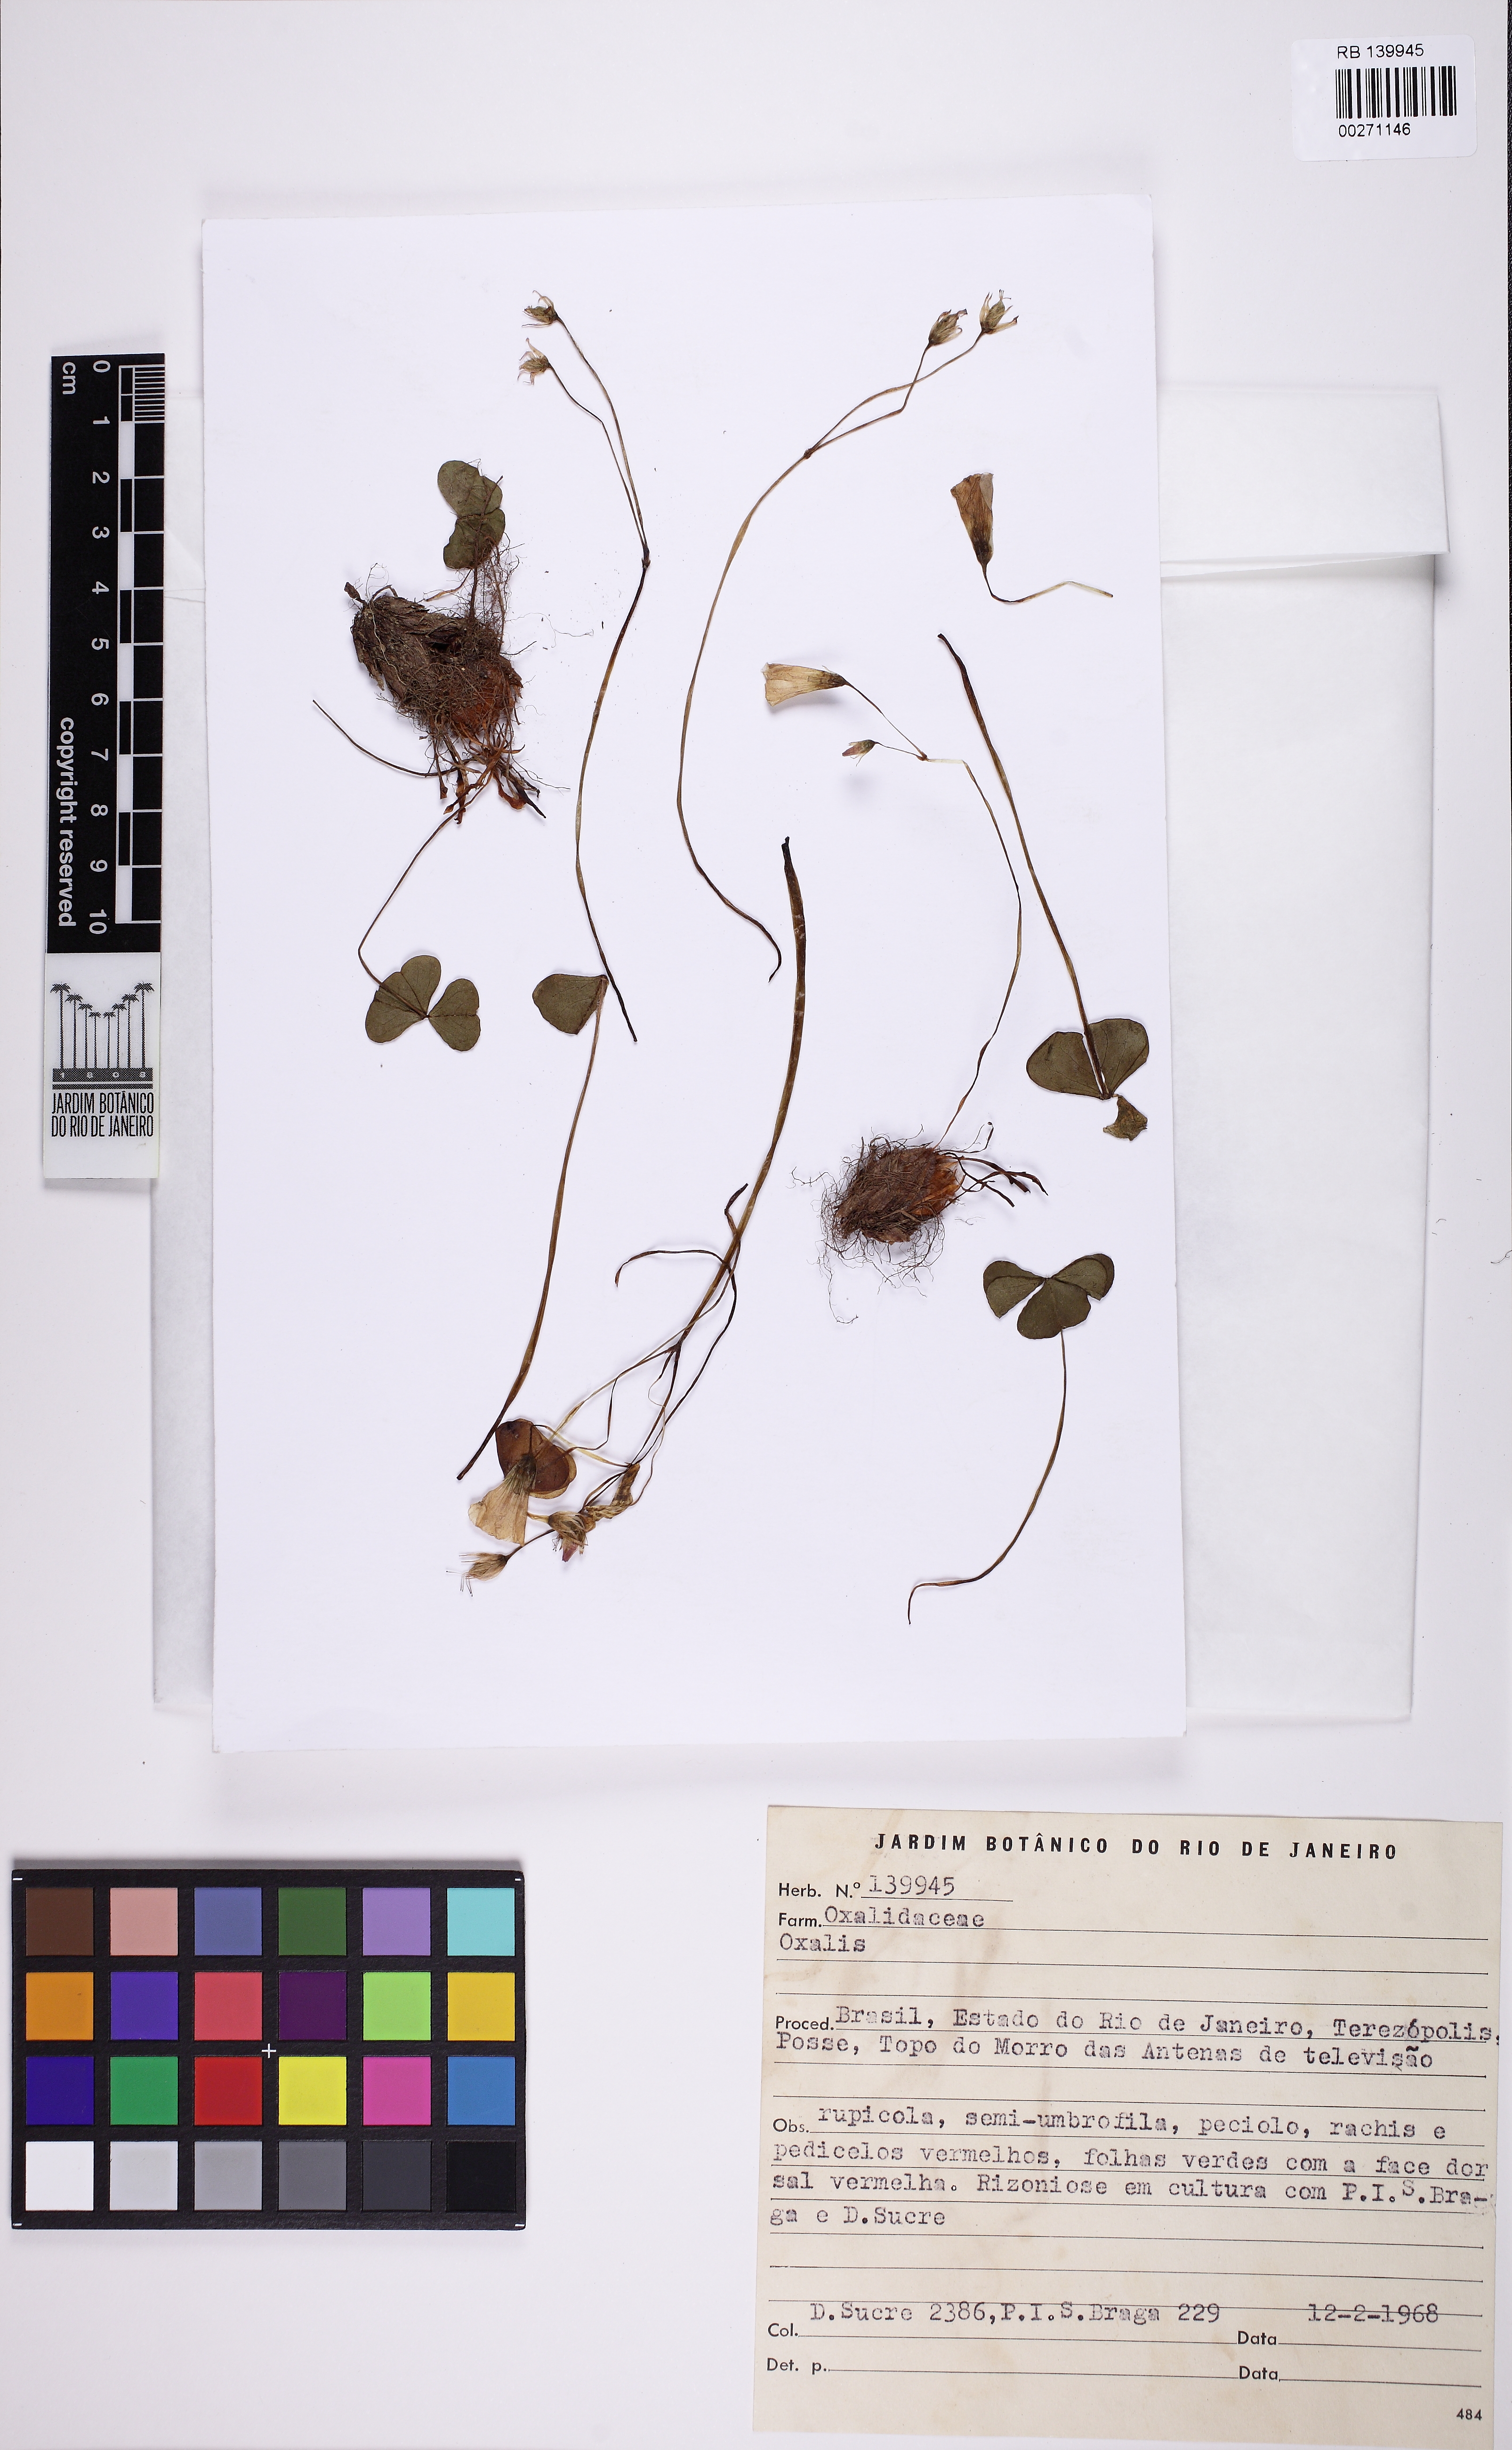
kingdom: Plantae
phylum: Tracheophyta
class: Magnoliopsida
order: Oxalidales
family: Oxalidaceae
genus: Oxalis
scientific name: Oxalis calva
